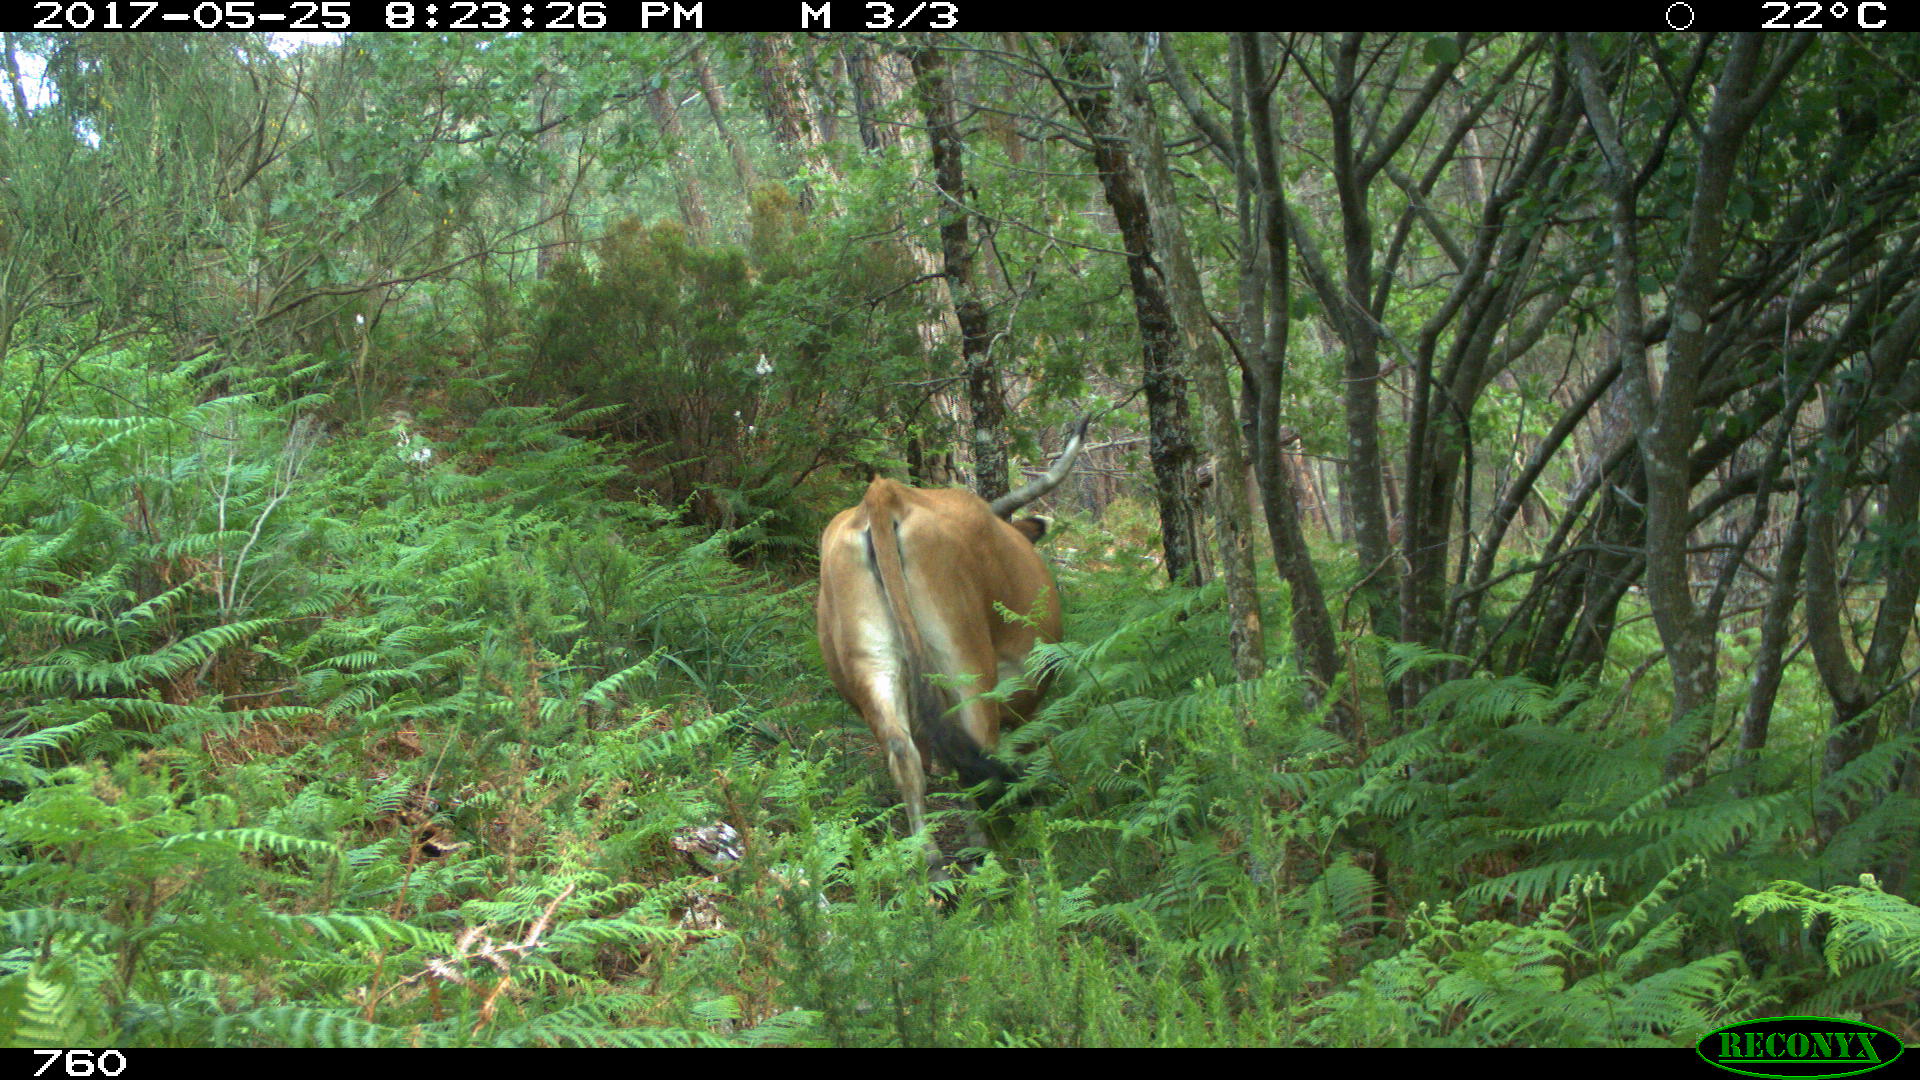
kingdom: Animalia
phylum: Chordata
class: Mammalia
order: Artiodactyla
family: Bovidae
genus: Bos
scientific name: Bos taurus
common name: Domesticated cattle
